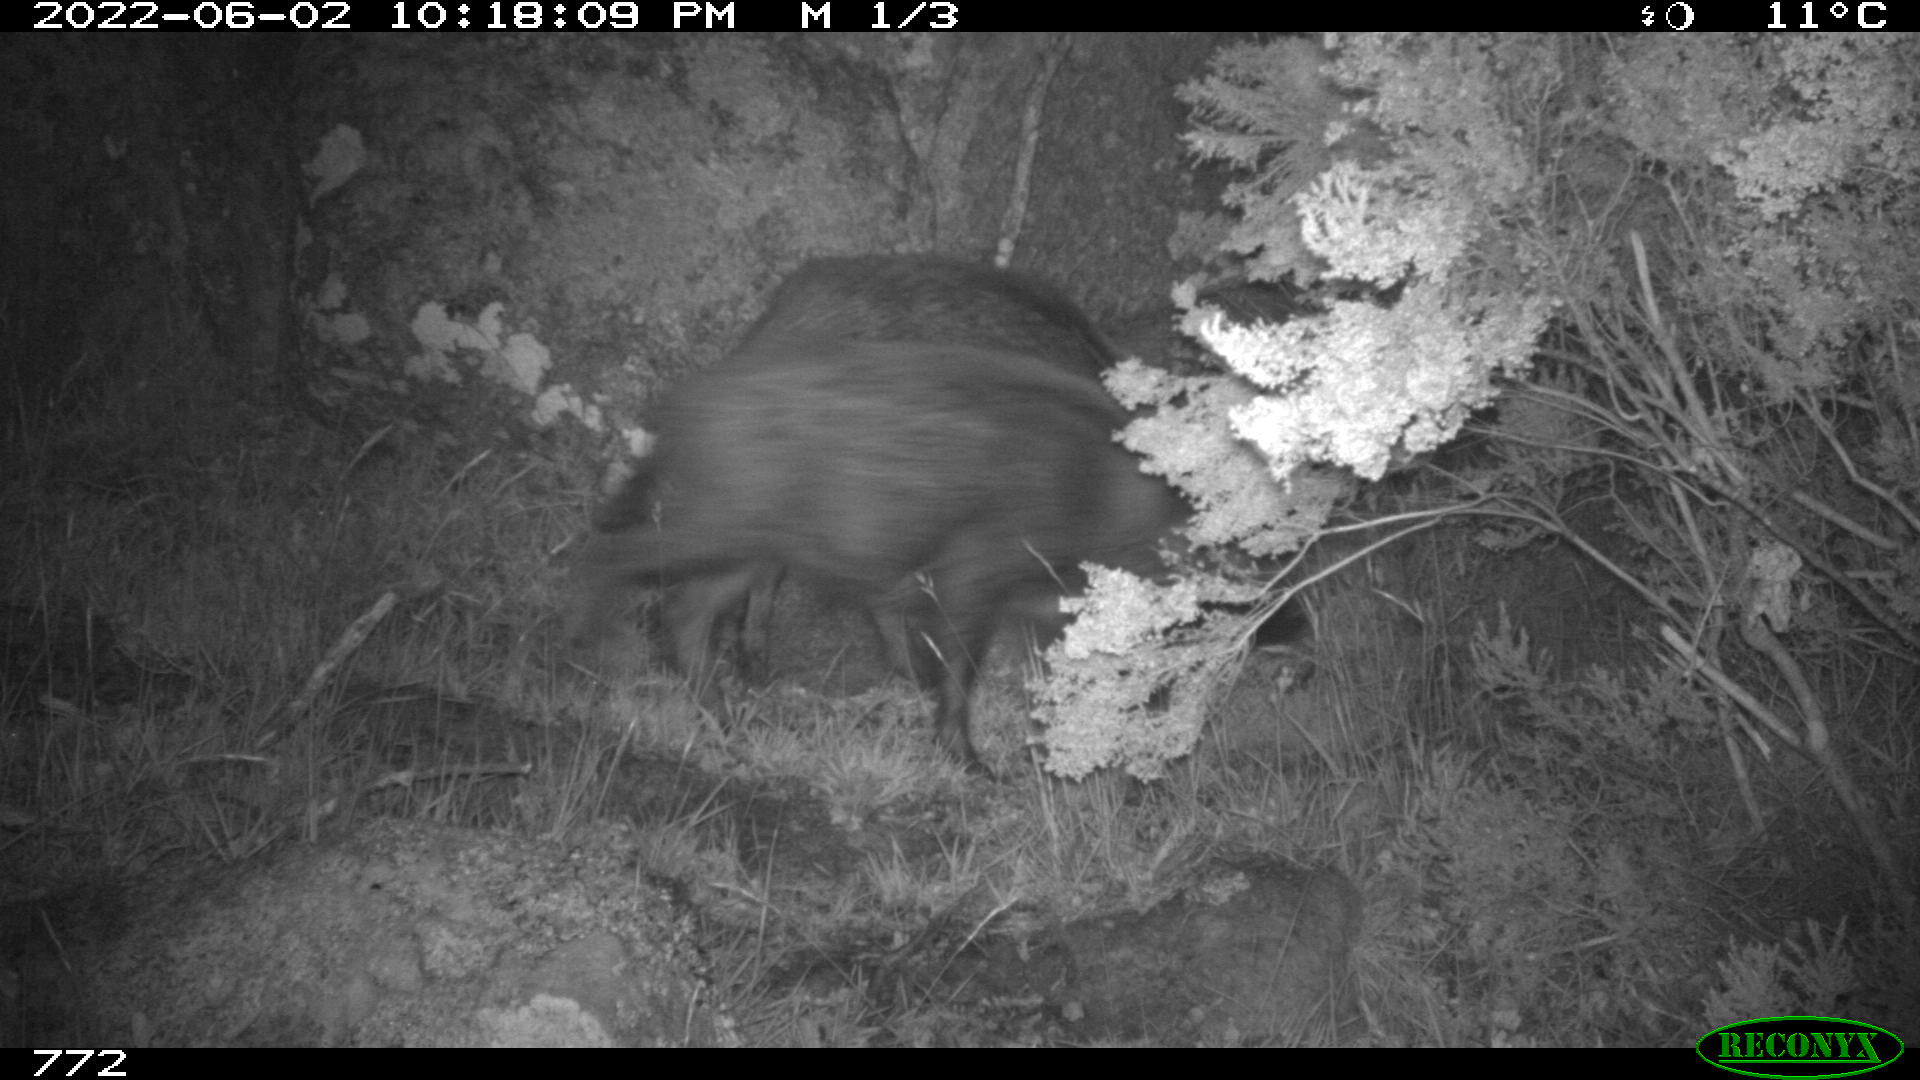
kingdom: Animalia
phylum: Chordata
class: Mammalia
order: Artiodactyla
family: Suidae
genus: Sus
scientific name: Sus scrofa
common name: Wild boar
